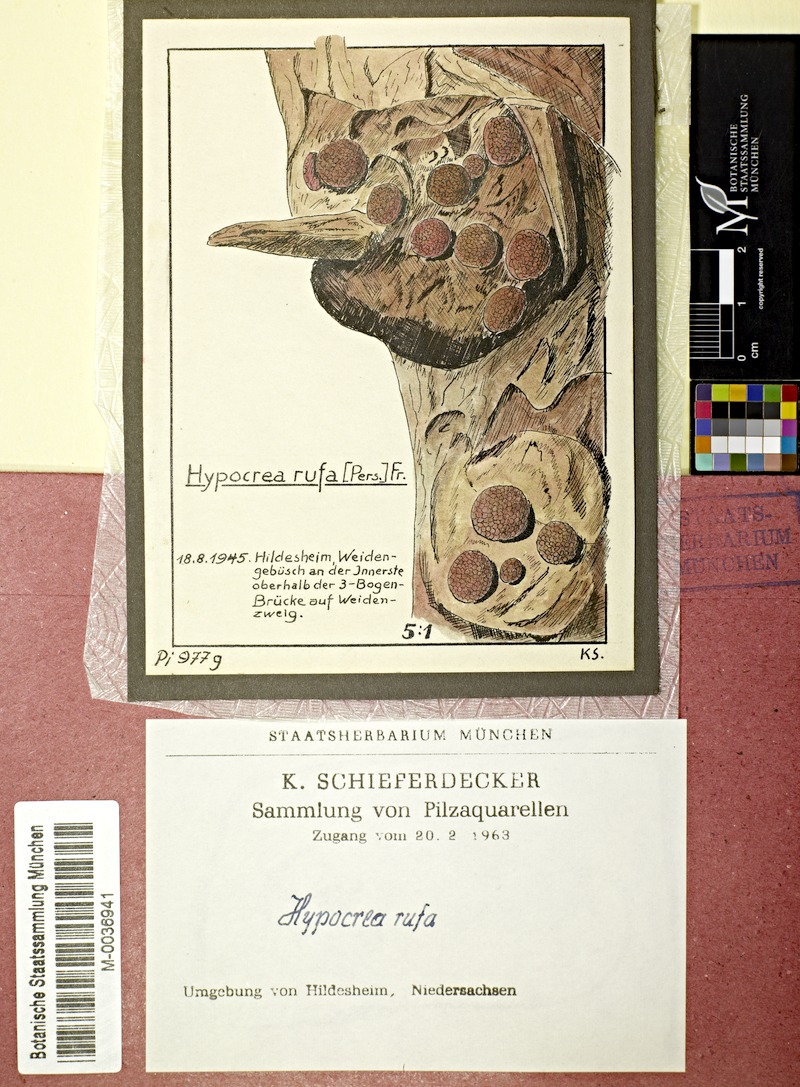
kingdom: Plantae
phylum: Tracheophyta
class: Magnoliopsida
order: Malpighiales
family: Salicaceae
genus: Salix
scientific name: Salix
